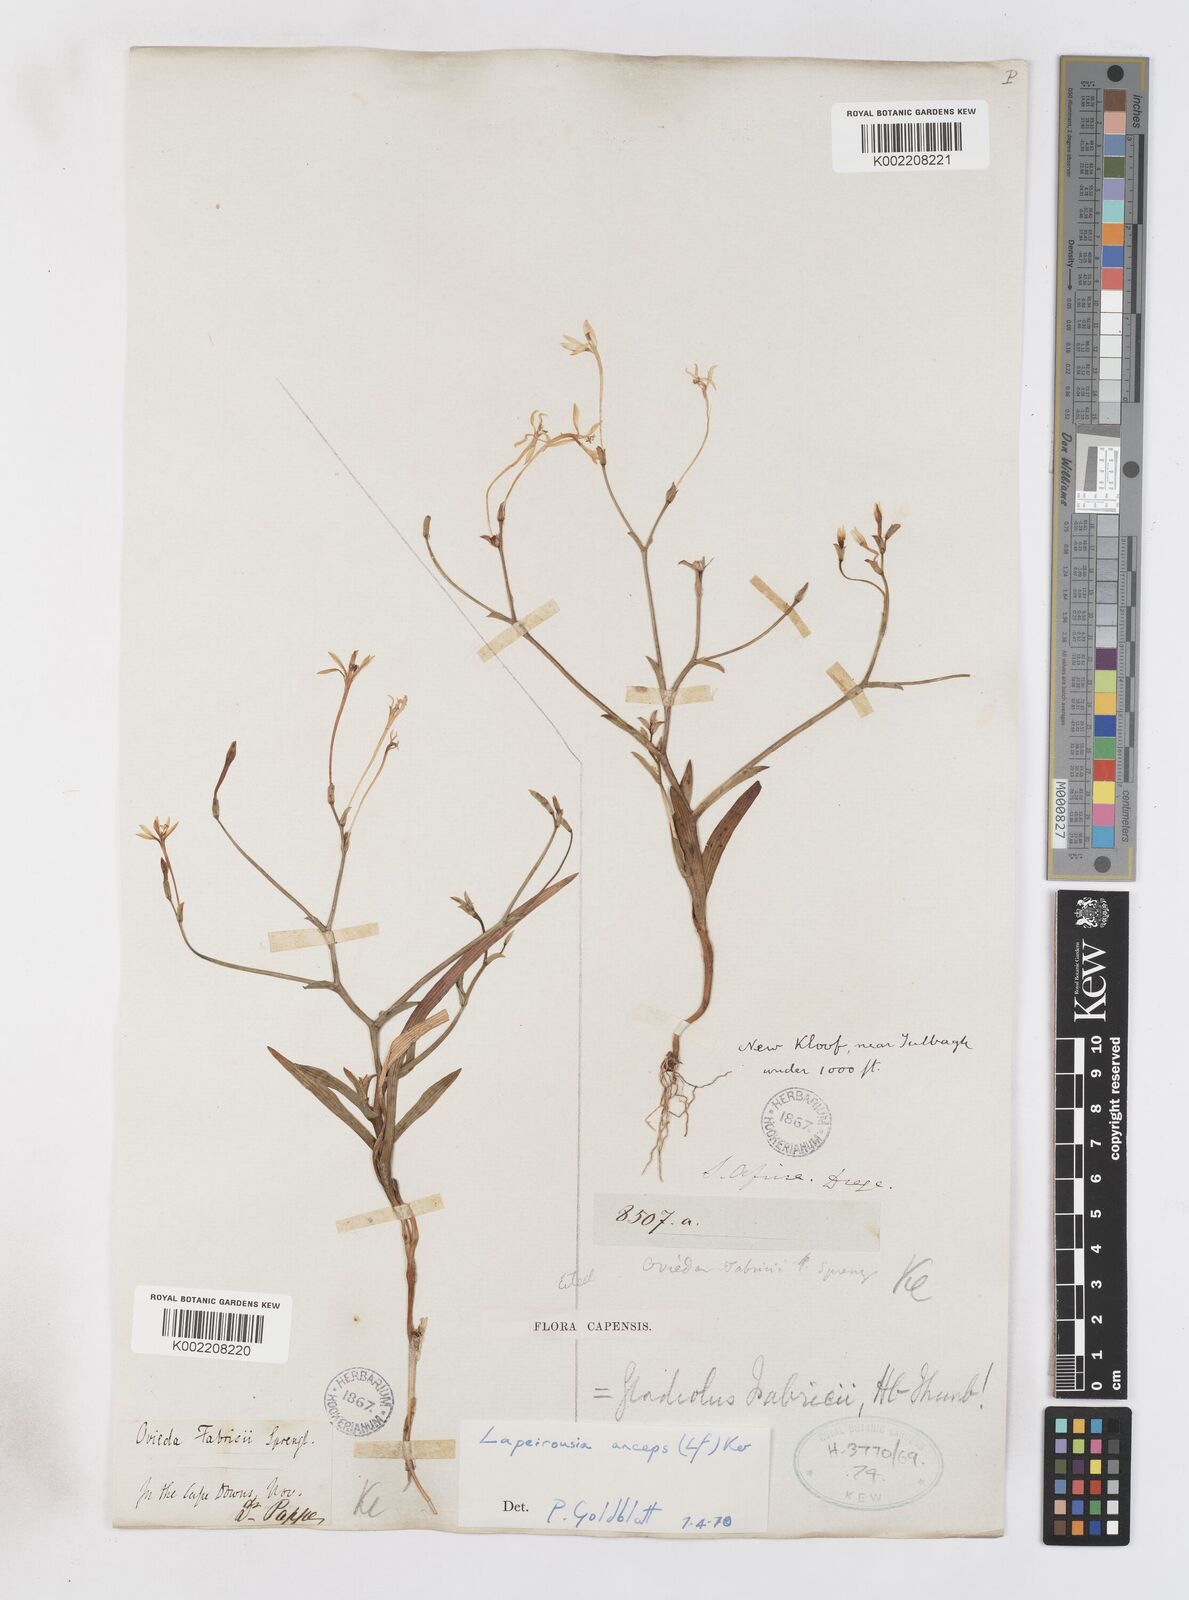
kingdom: Plantae
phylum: Tracheophyta
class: Liliopsida
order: Asparagales
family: Iridaceae
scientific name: Iridaceae
